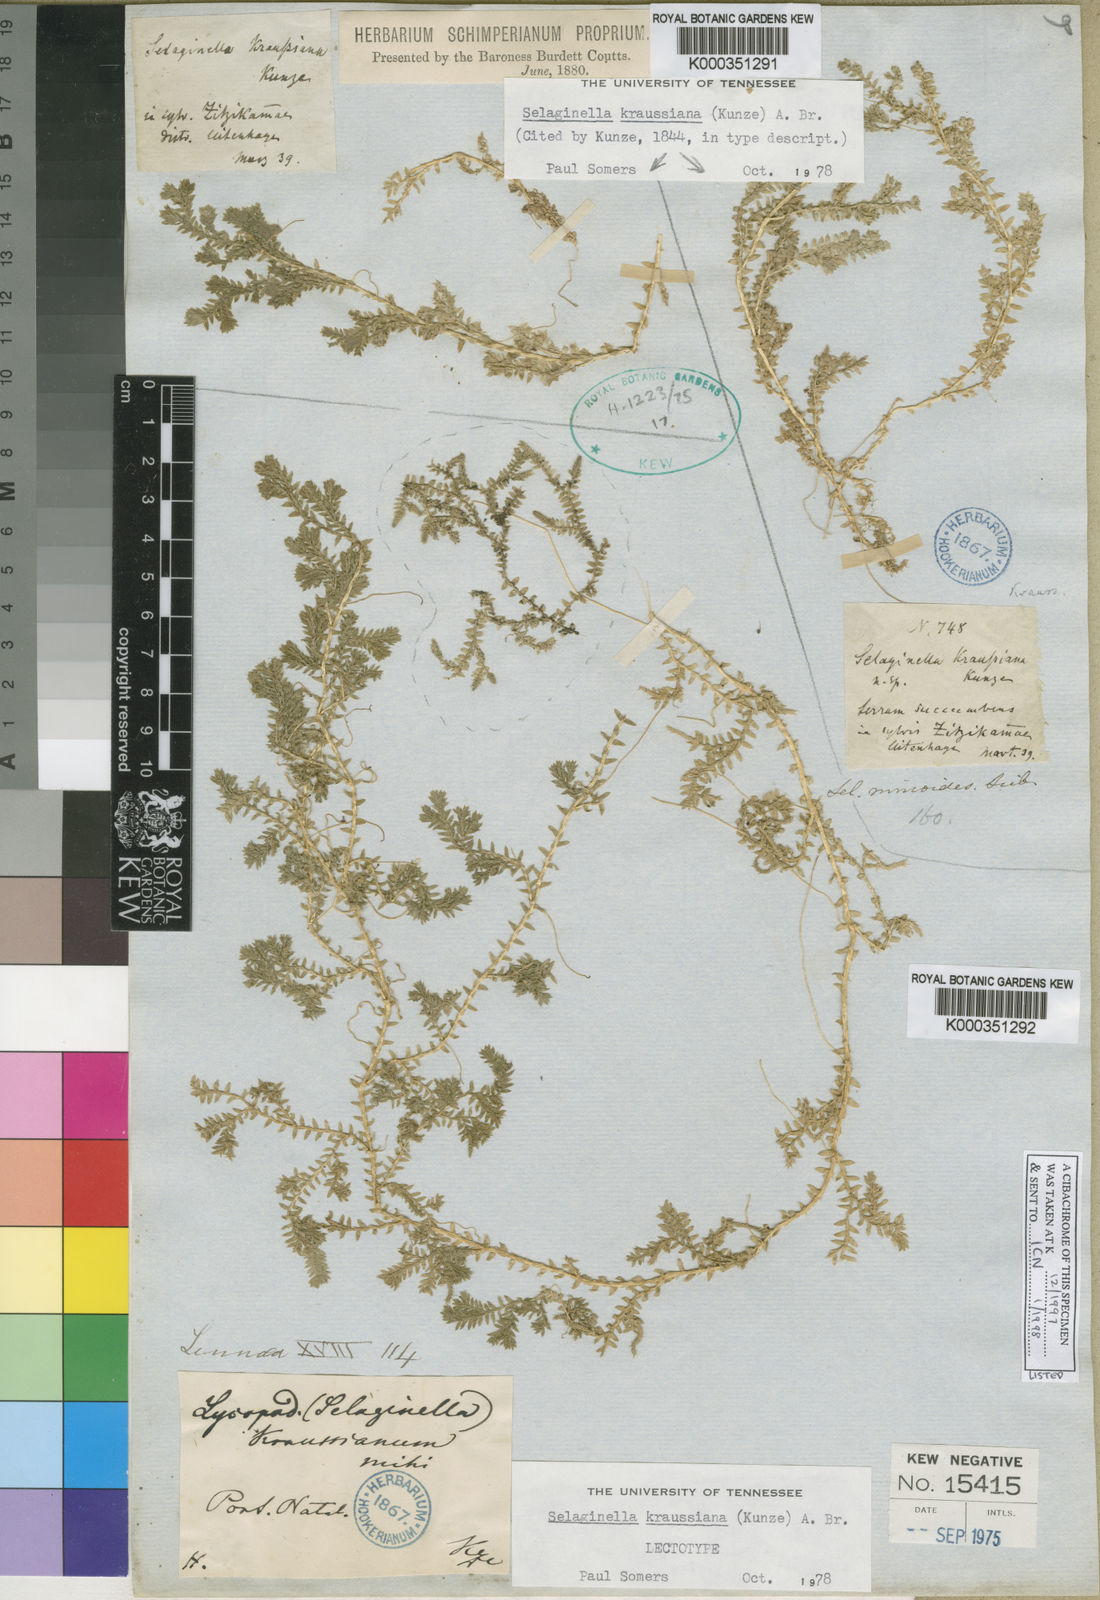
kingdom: Plantae
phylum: Tracheophyta
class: Lycopodiopsida
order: Selaginellales
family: Selaginellaceae
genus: Selaginella
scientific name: Selaginella kraussiana
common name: Krauss' spikemoss
